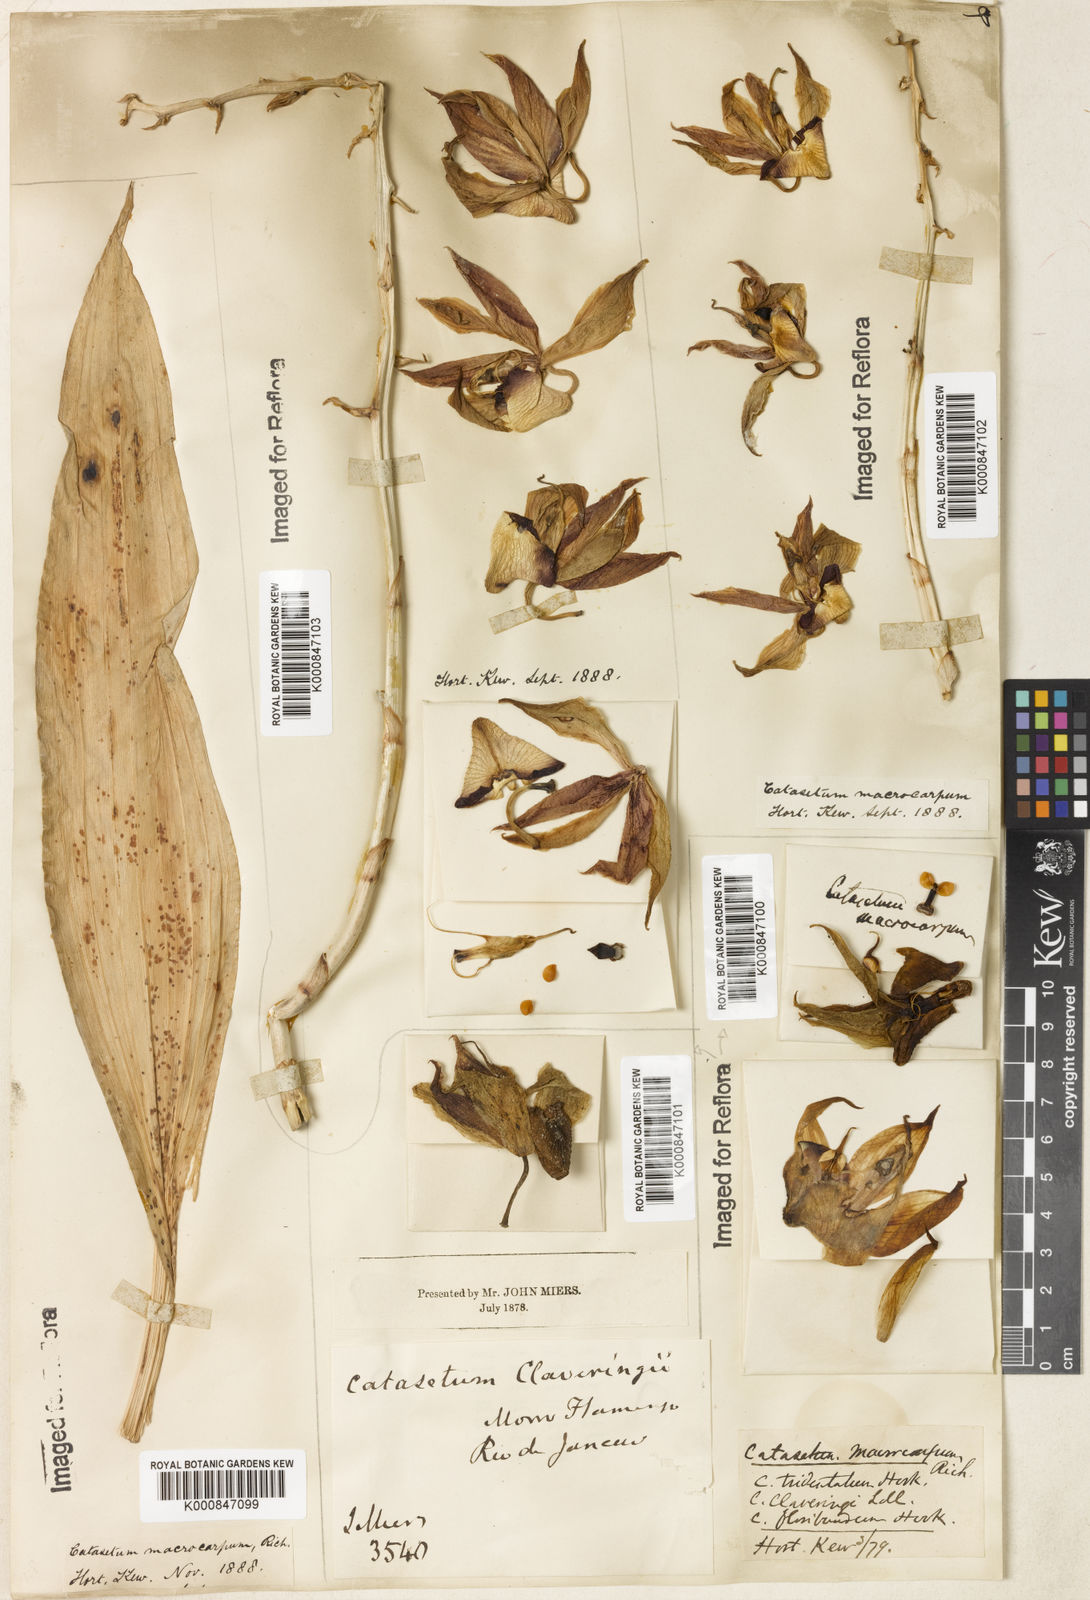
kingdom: Plantae
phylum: Tracheophyta
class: Liliopsida
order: Asparagales
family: Orchidaceae
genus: Catasetum
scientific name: Catasetum macrocarpum
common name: Jumping orchid
